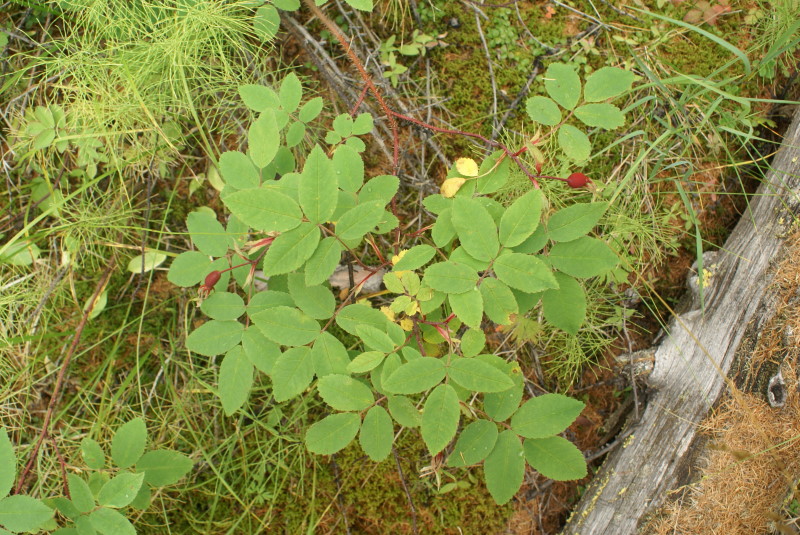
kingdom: Plantae
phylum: Tracheophyta
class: Magnoliopsida
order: Rosales
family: Rosaceae
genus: Rosa
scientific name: Rosa
